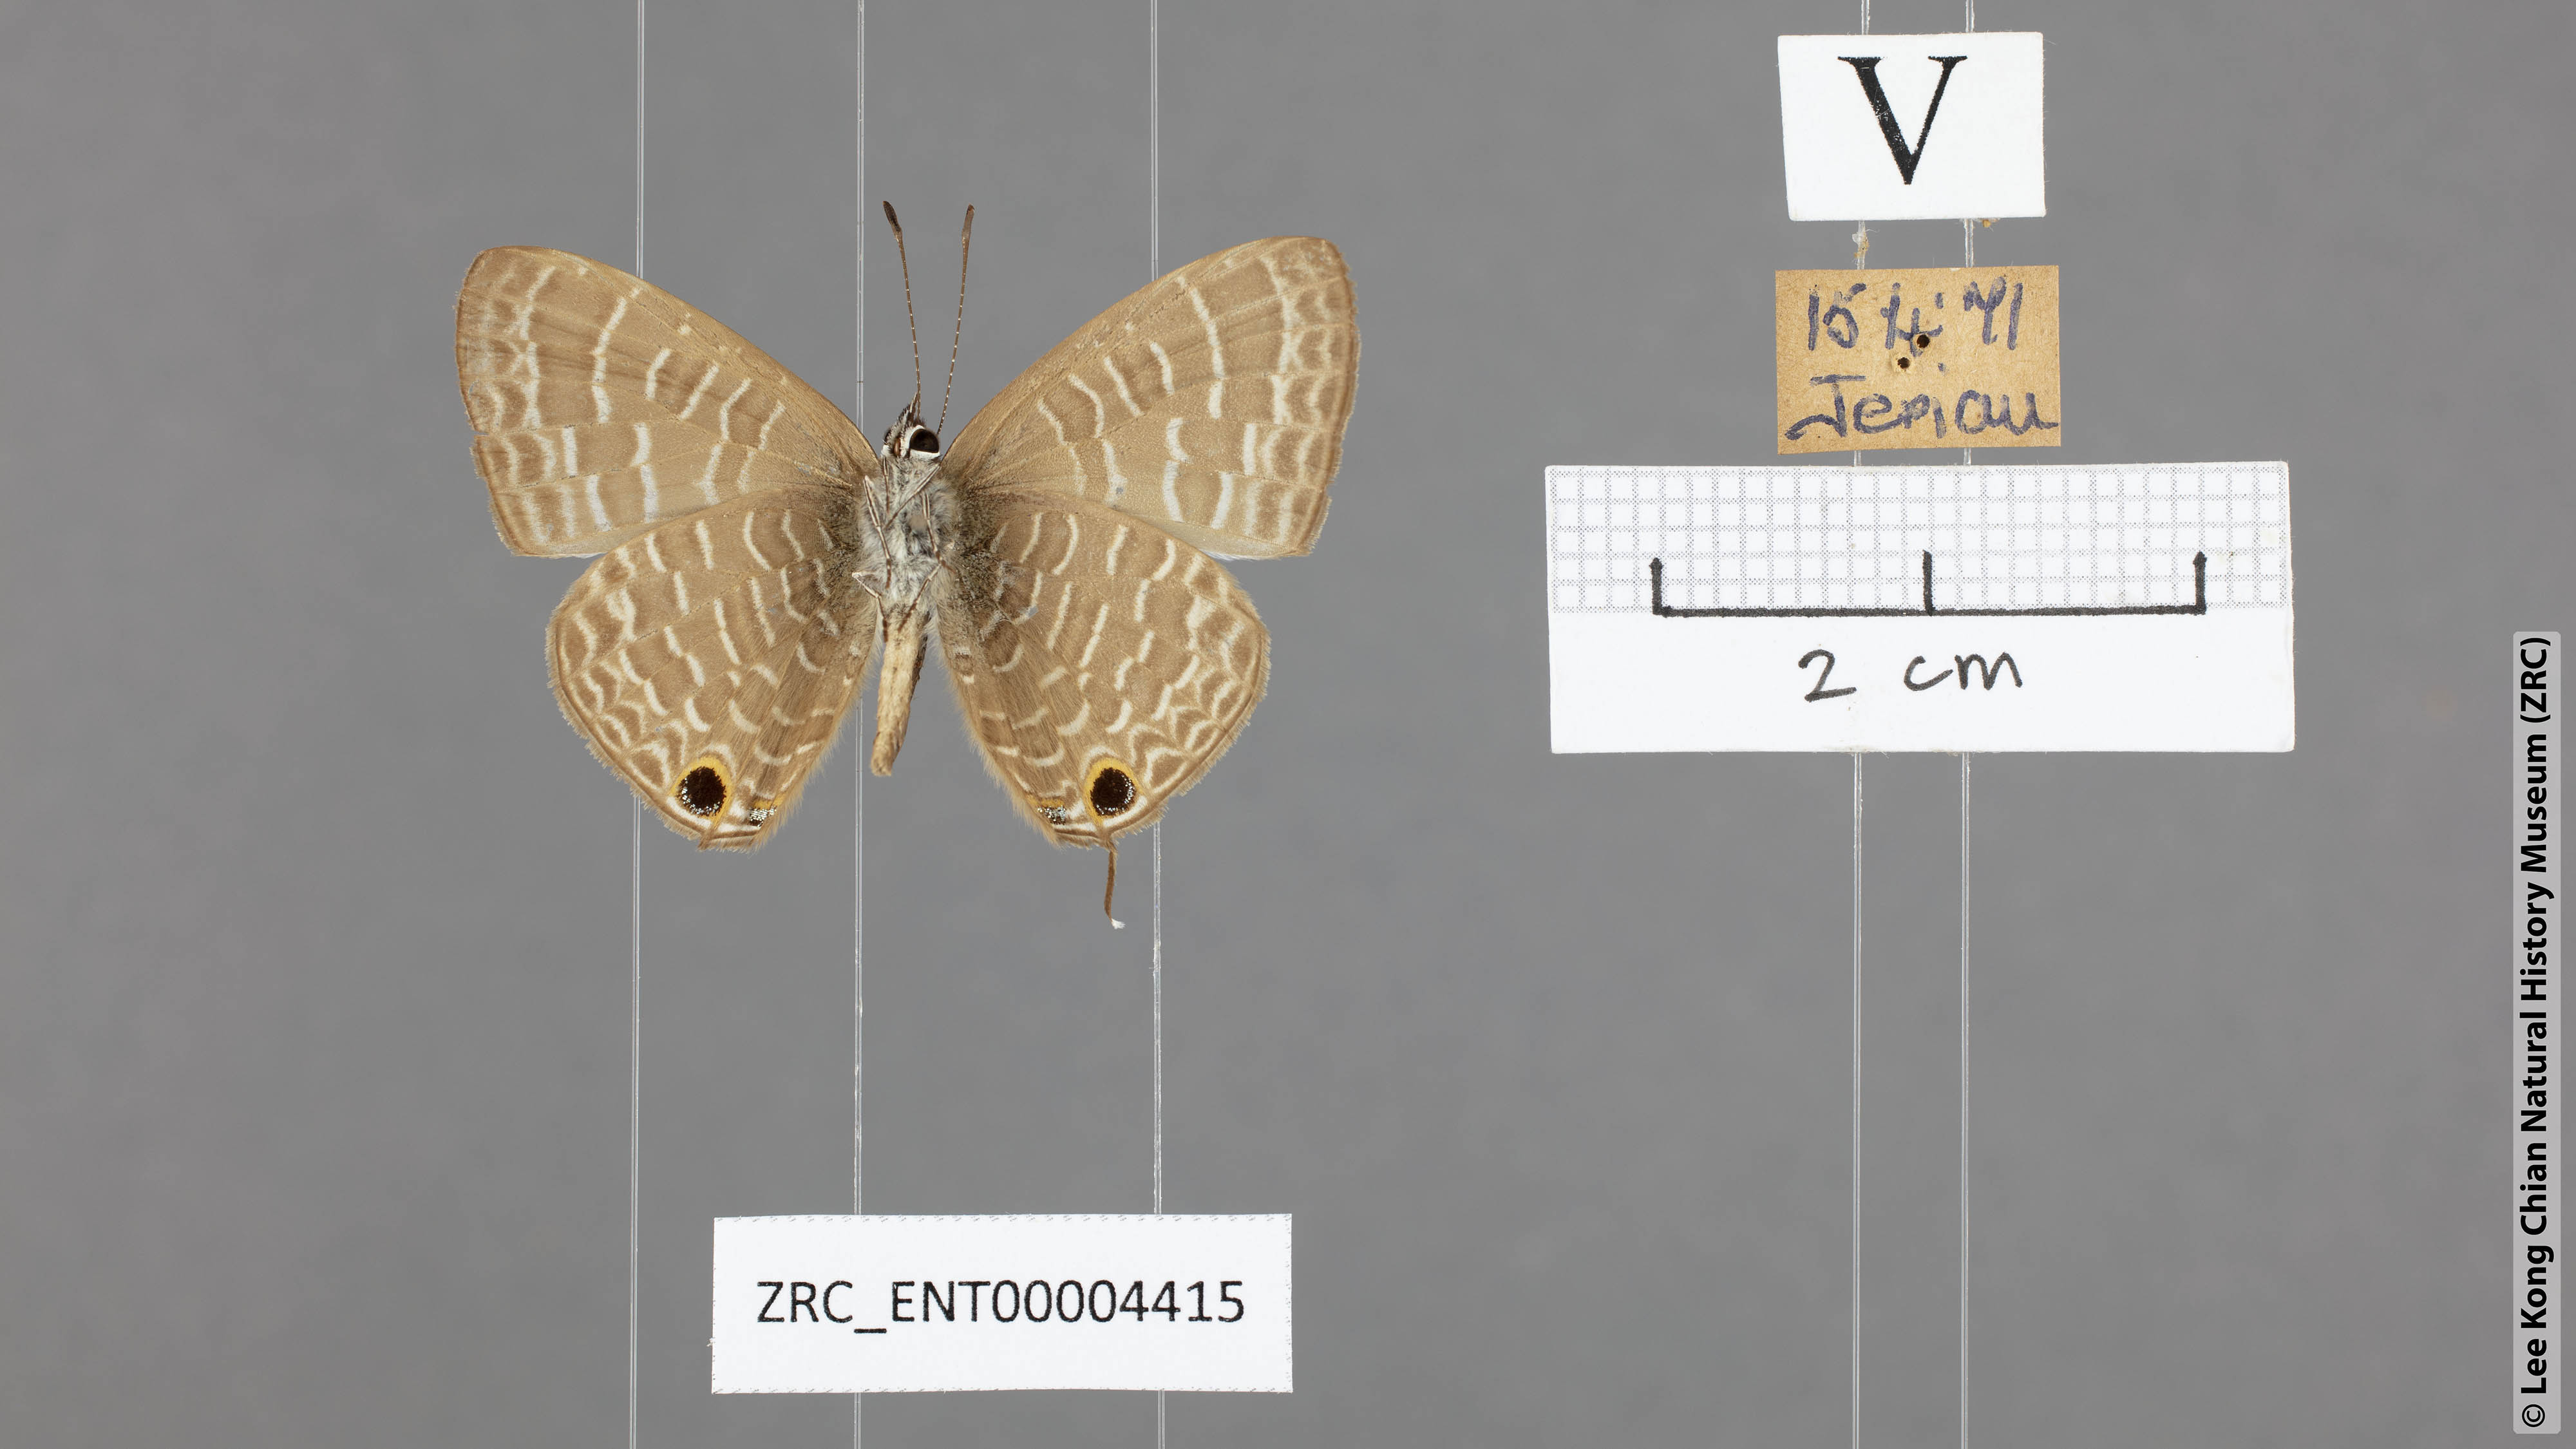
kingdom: Animalia
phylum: Arthropoda
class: Insecta
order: Lepidoptera
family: Lycaenidae
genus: Nacaduba
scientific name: Nacaduba subperusia
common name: Violet fourline blue
